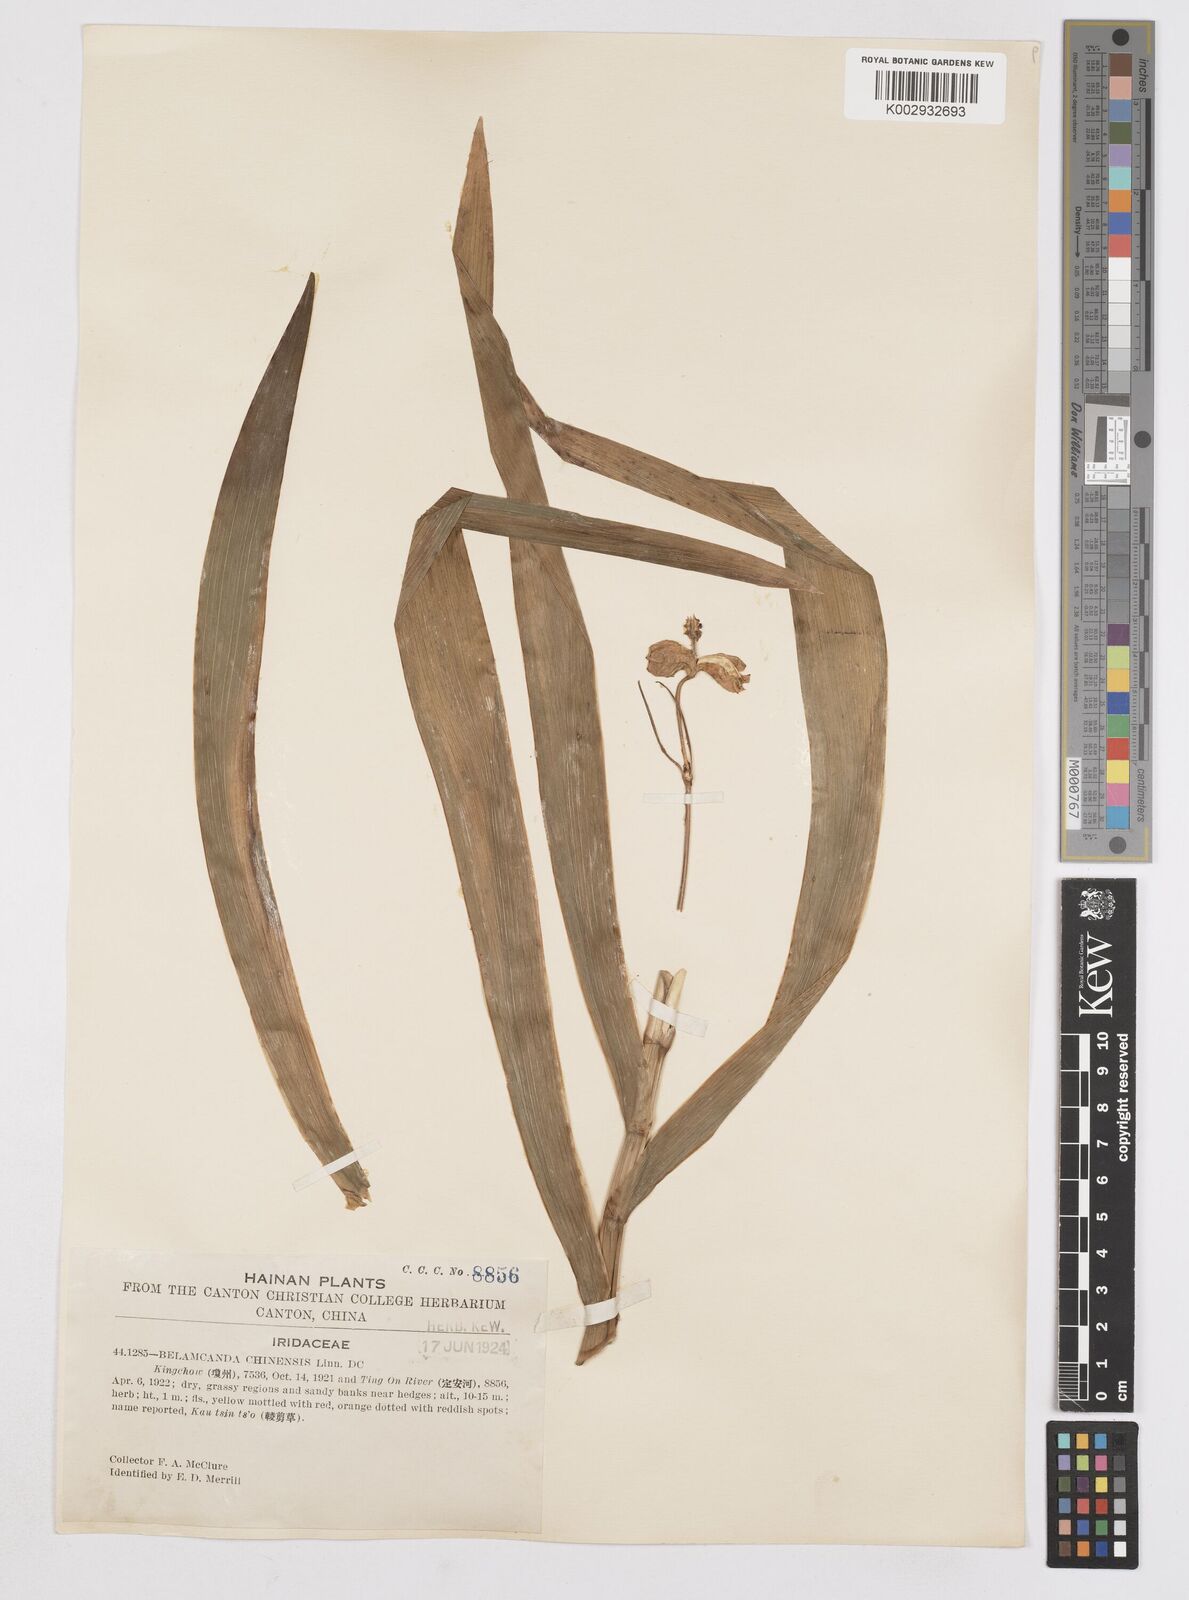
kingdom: Plantae
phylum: Tracheophyta
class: Liliopsida
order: Asparagales
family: Iridaceae
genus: Iris
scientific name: Iris
